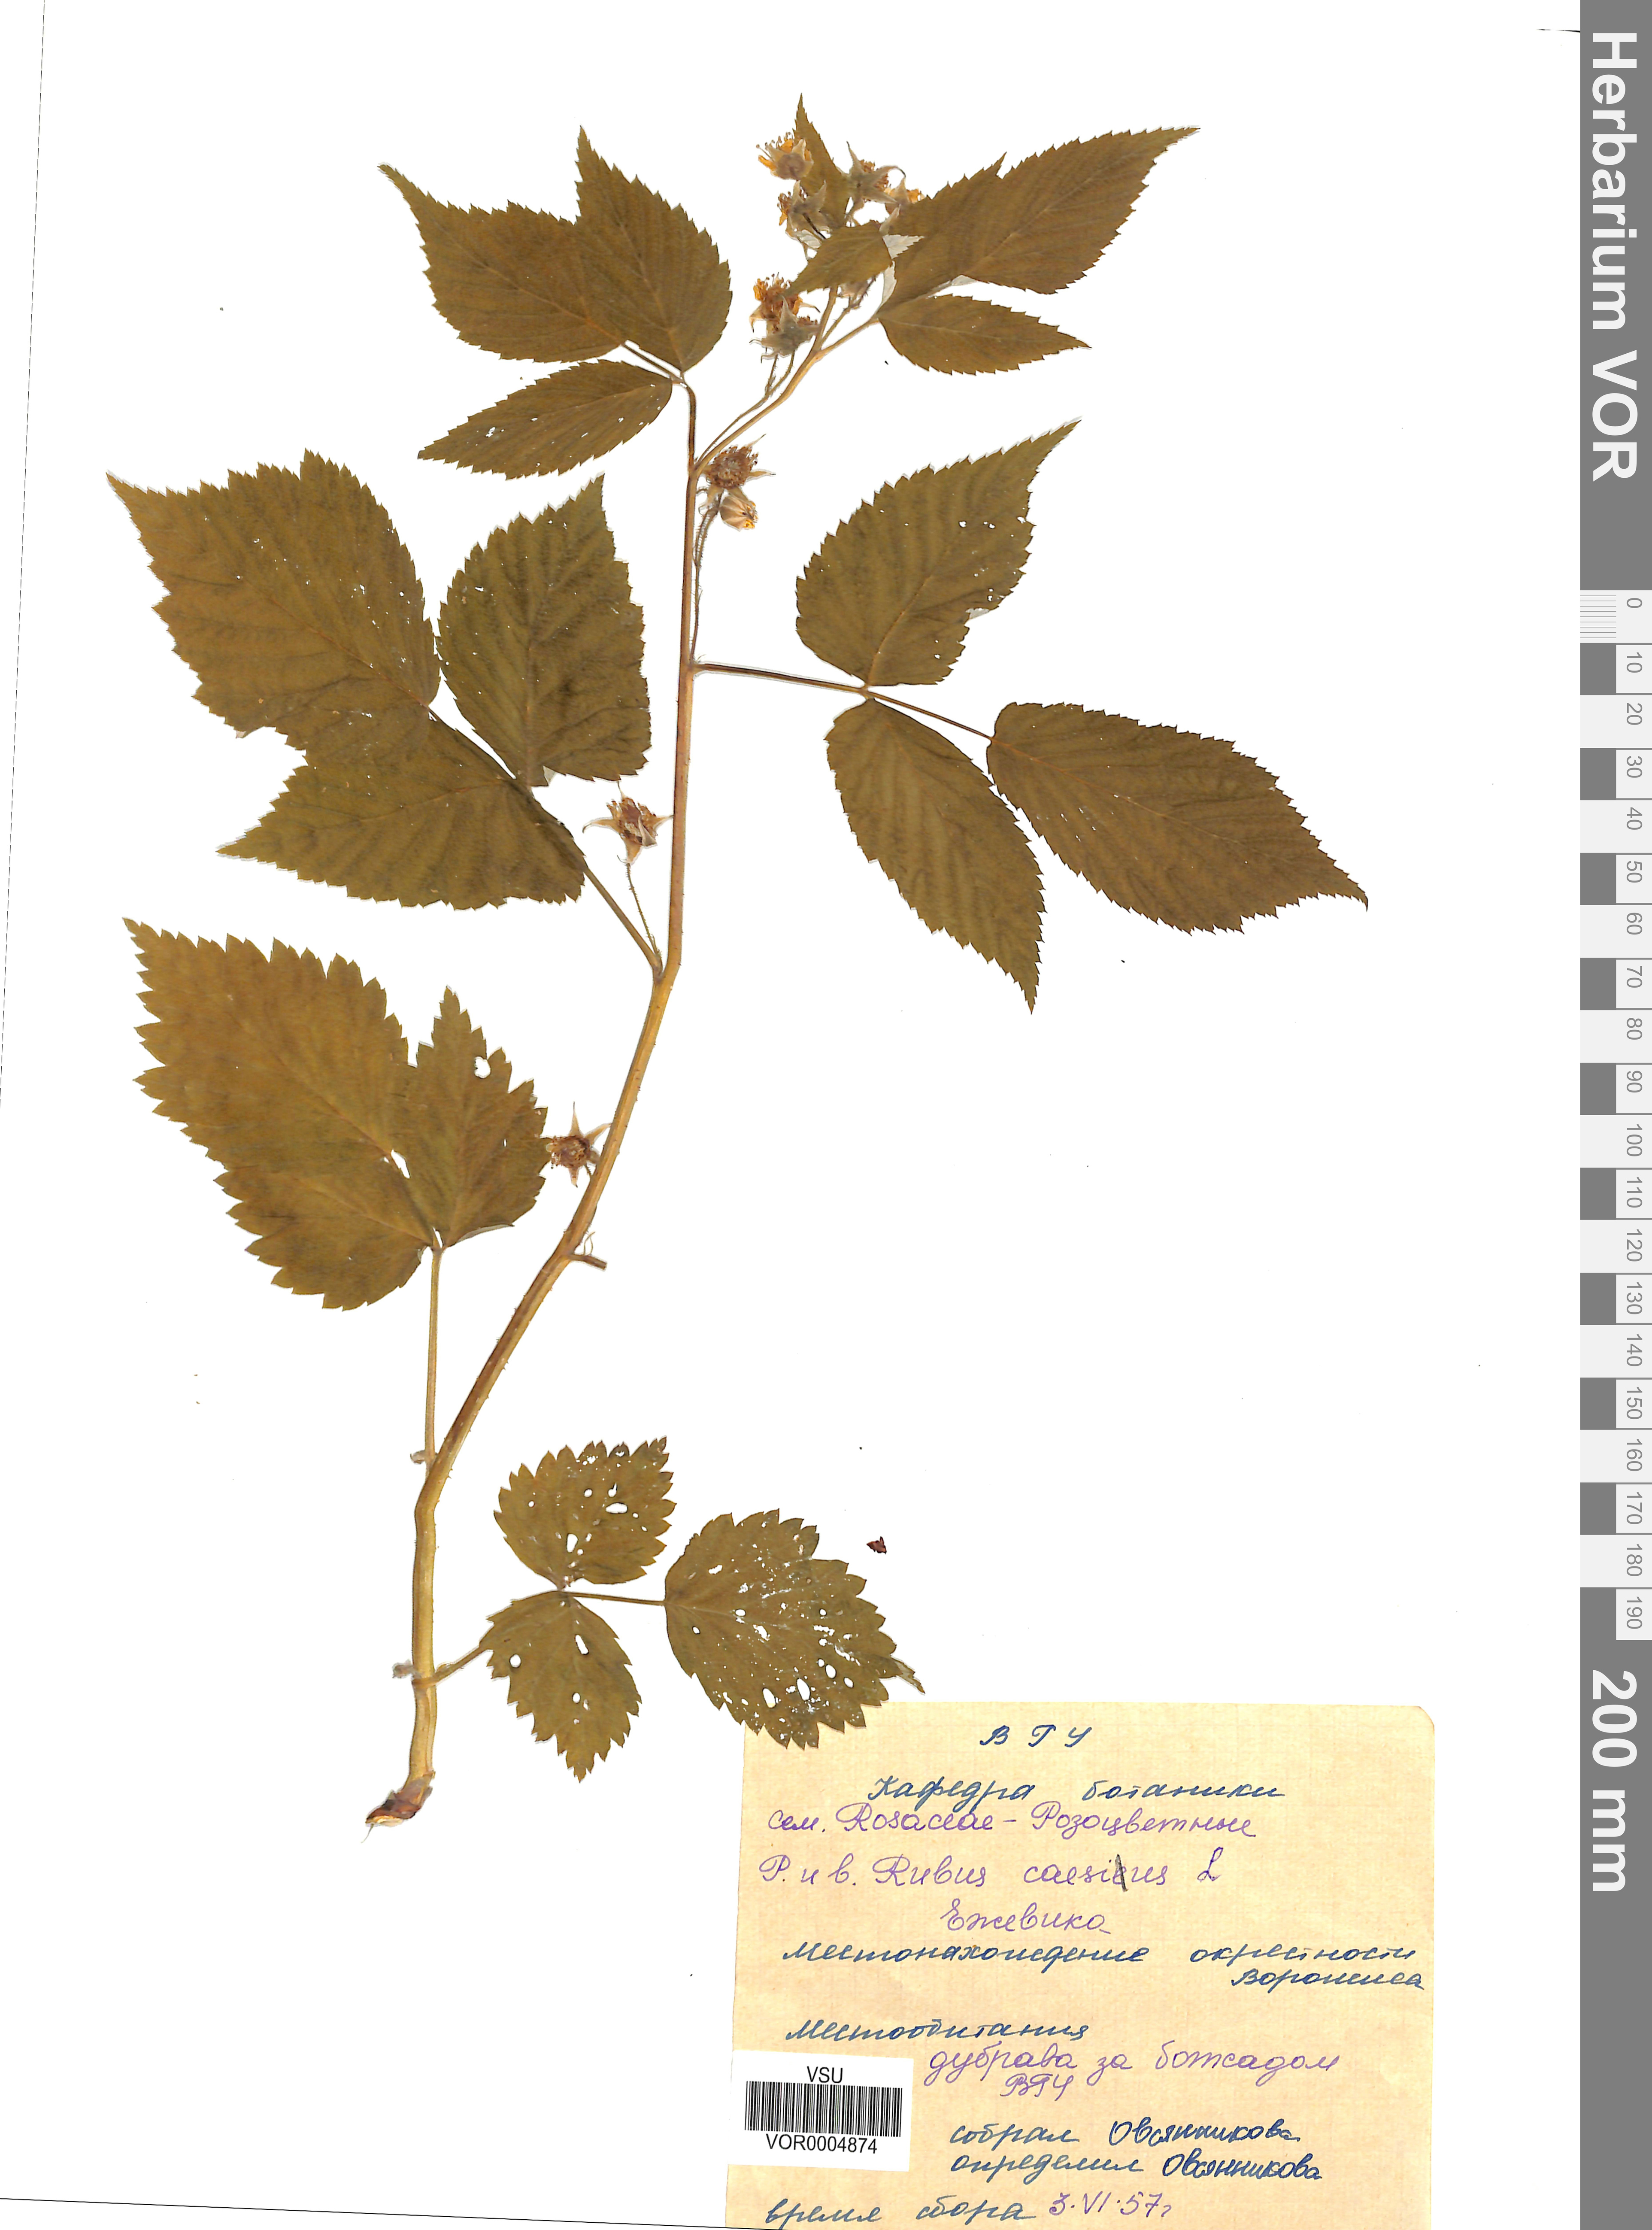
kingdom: Plantae
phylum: Tracheophyta
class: Magnoliopsida
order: Rosales
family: Rosaceae
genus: Rubus
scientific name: Rubus caesius
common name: Dewberry
